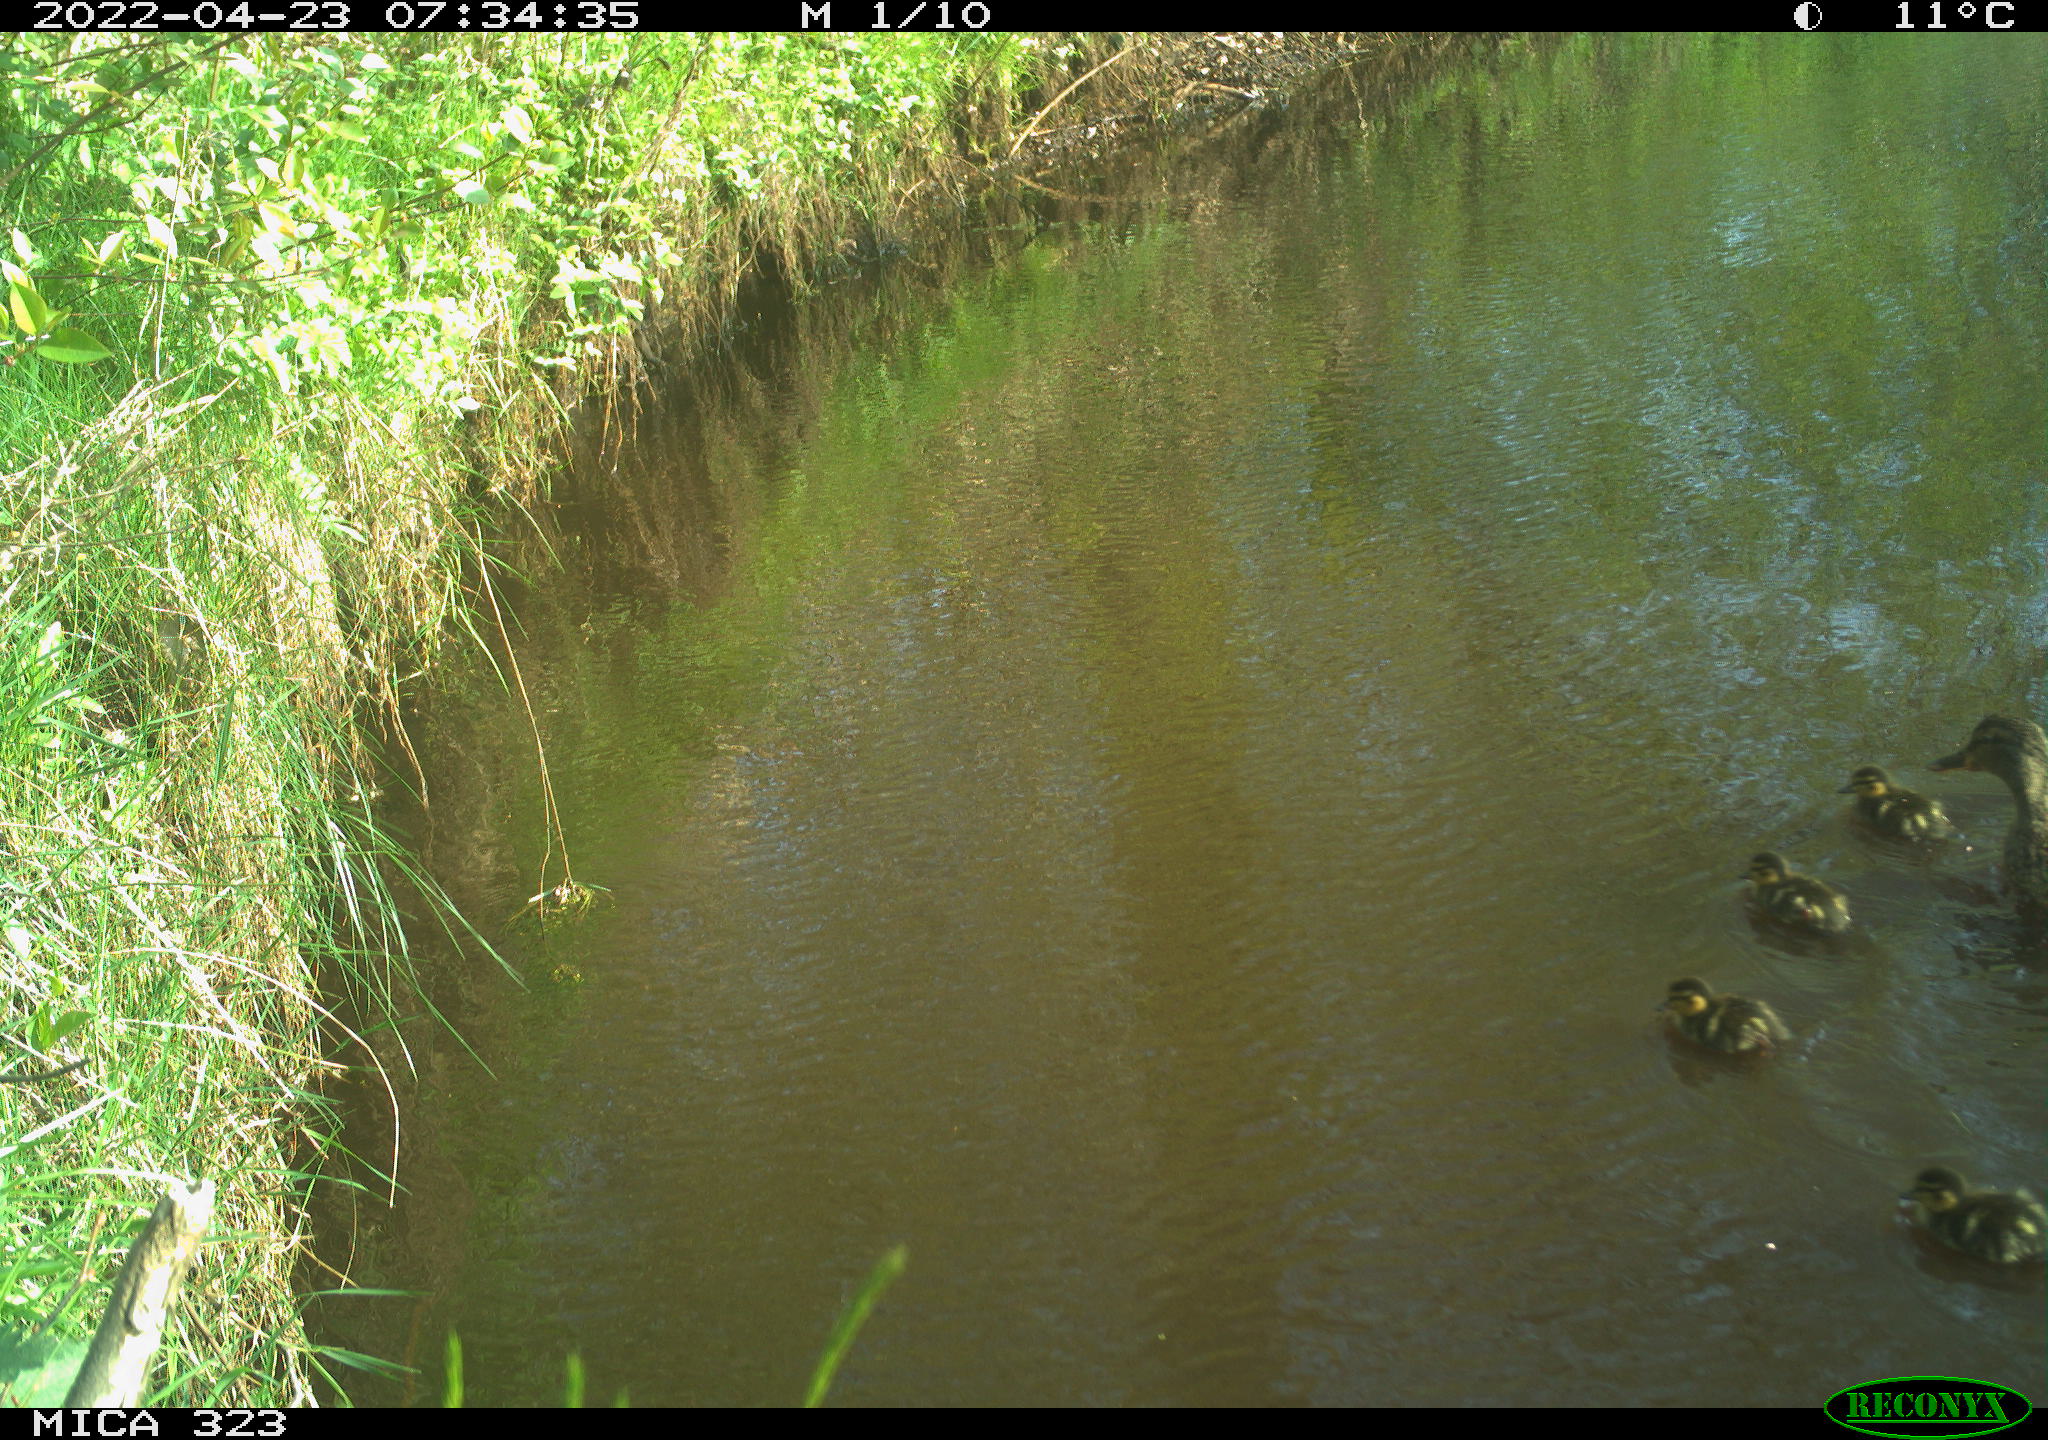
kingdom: Animalia
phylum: Chordata
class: Aves
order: Anseriformes
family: Anatidae
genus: Anas
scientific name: Anas platyrhynchos
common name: Mallard
